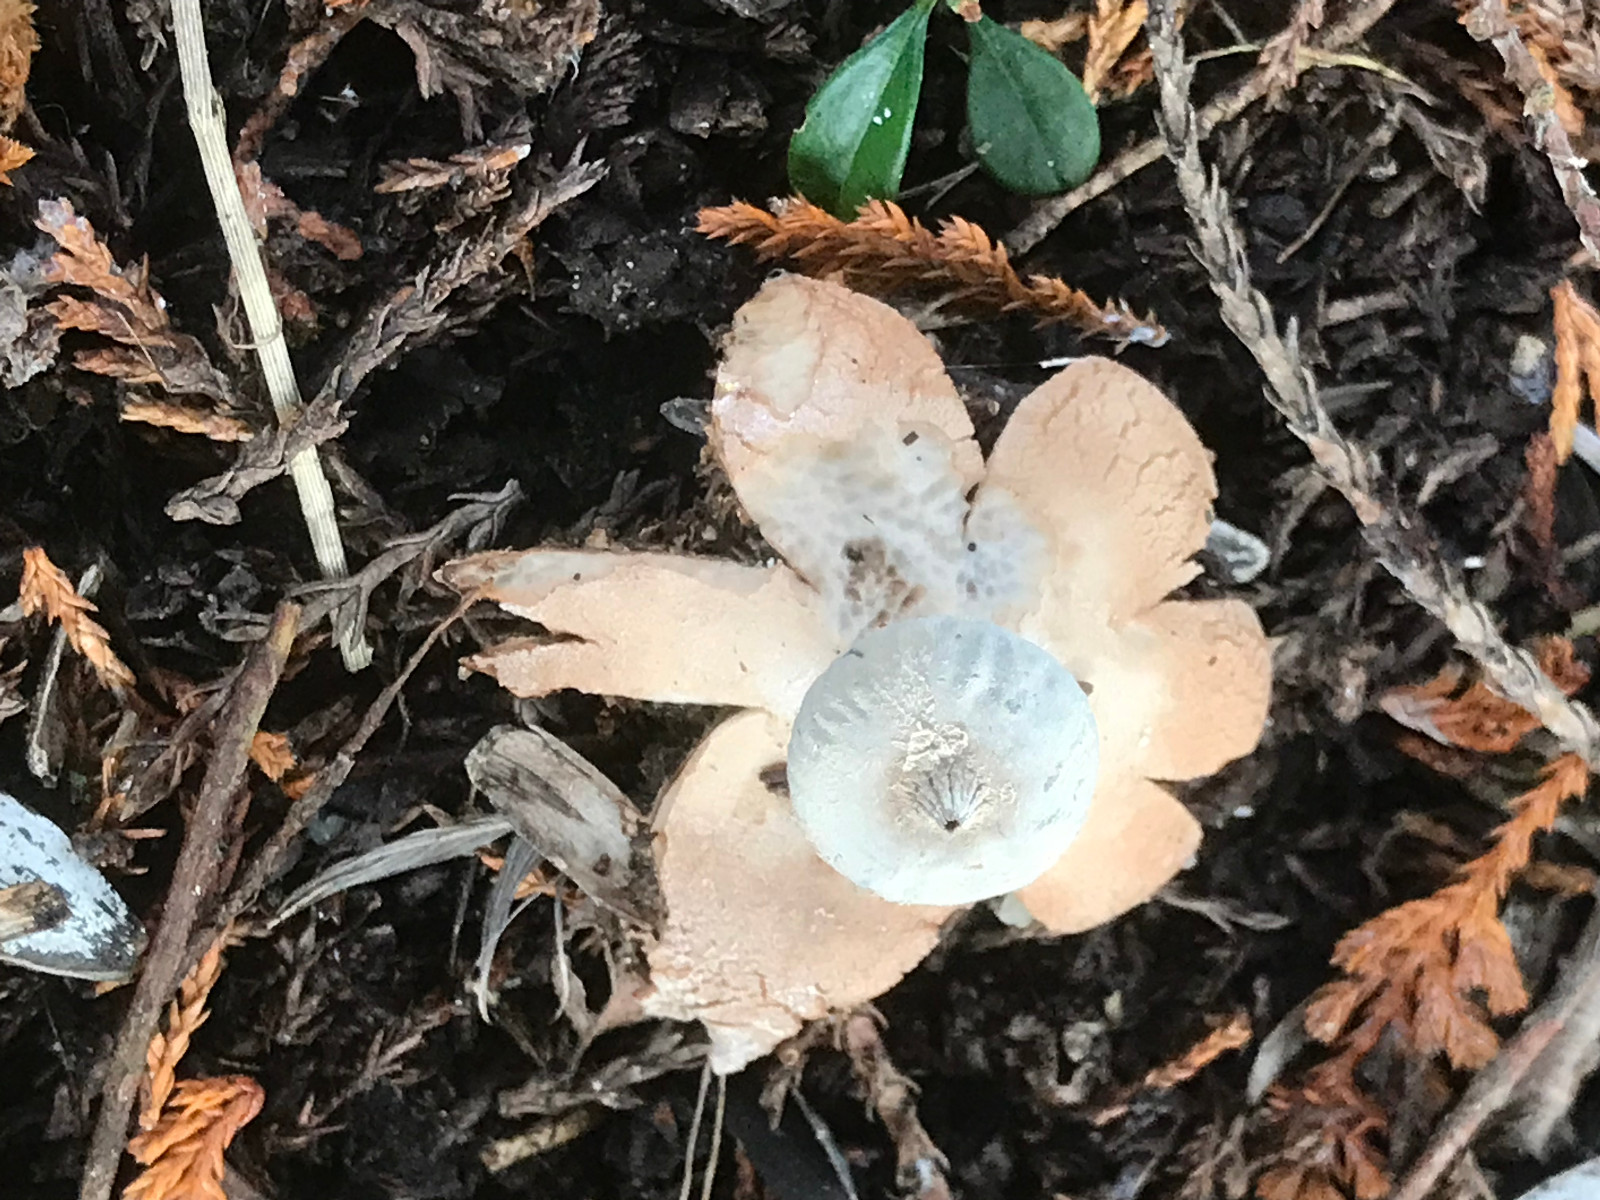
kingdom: Fungi
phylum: Basidiomycota
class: Agaricomycetes
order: Geastrales
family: Geastraceae
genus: Geastrum
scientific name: Geastrum striatum
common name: krave-stjernebold
